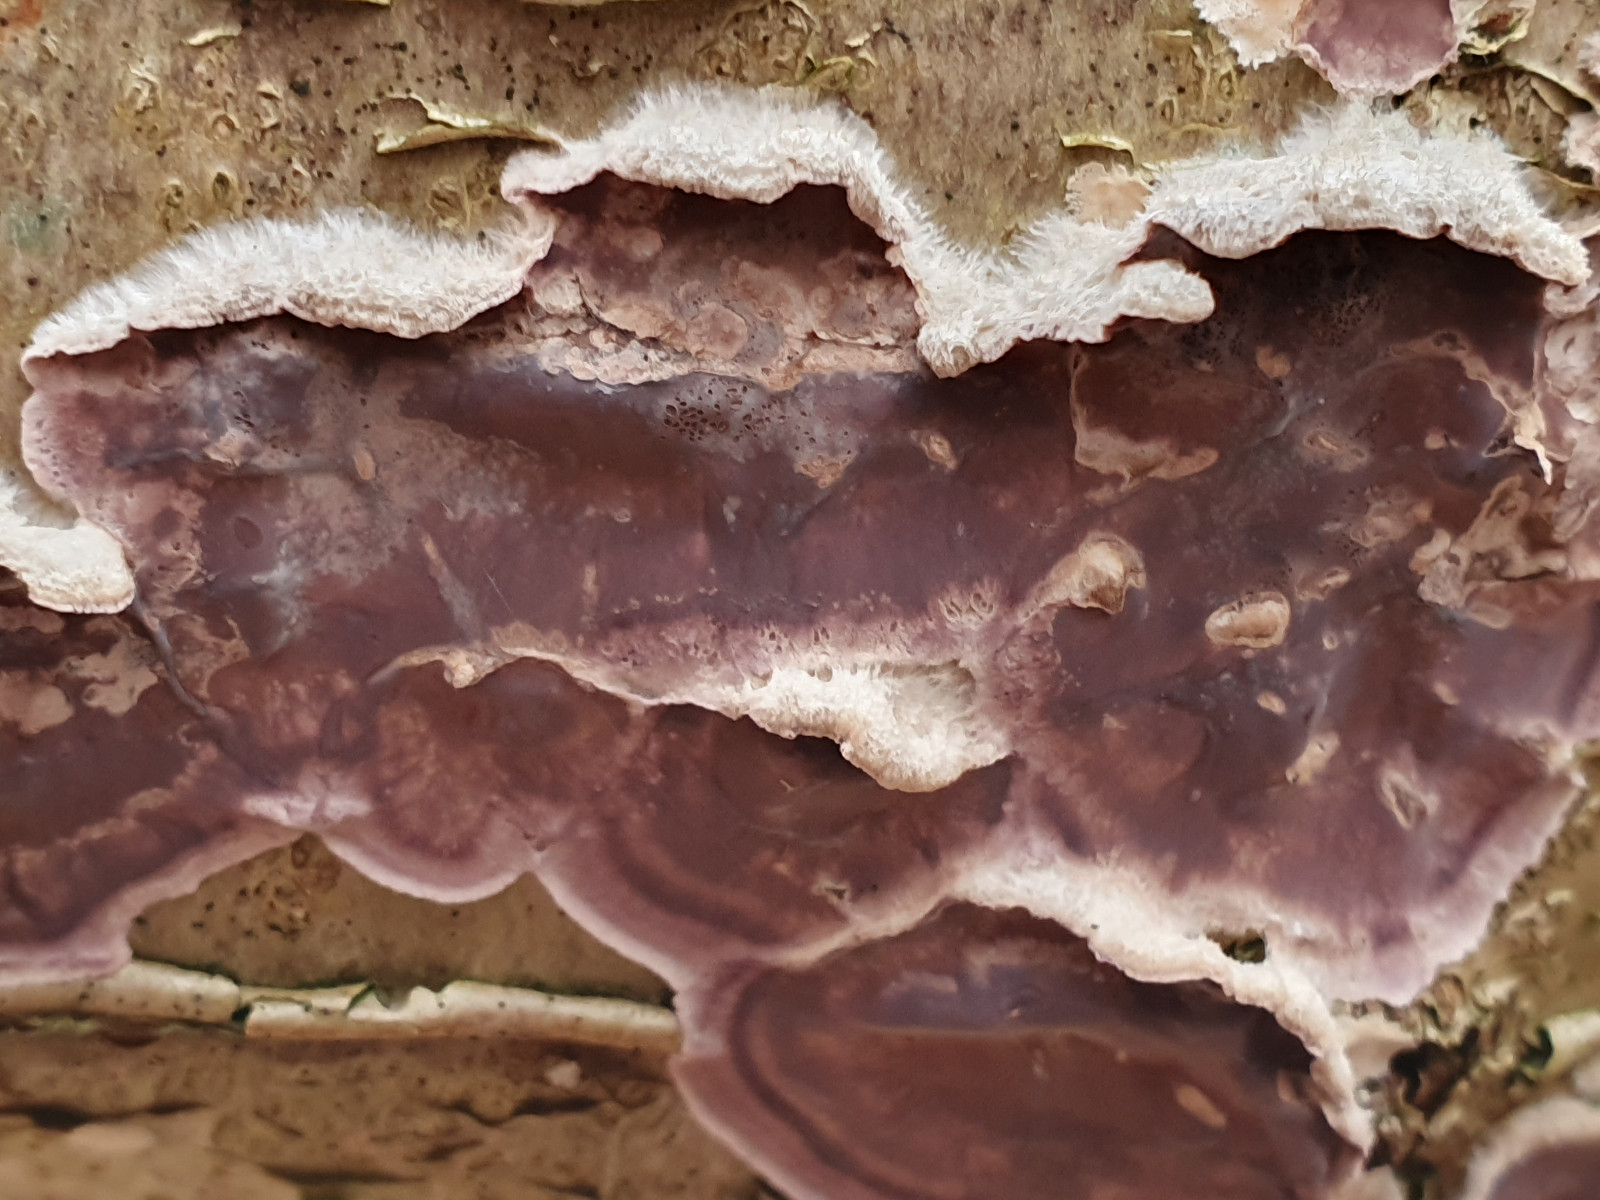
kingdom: Fungi
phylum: Basidiomycota
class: Agaricomycetes
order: Agaricales
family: Cyphellaceae
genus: Chondrostereum
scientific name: Chondrostereum purpureum
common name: purpurlædersvamp
